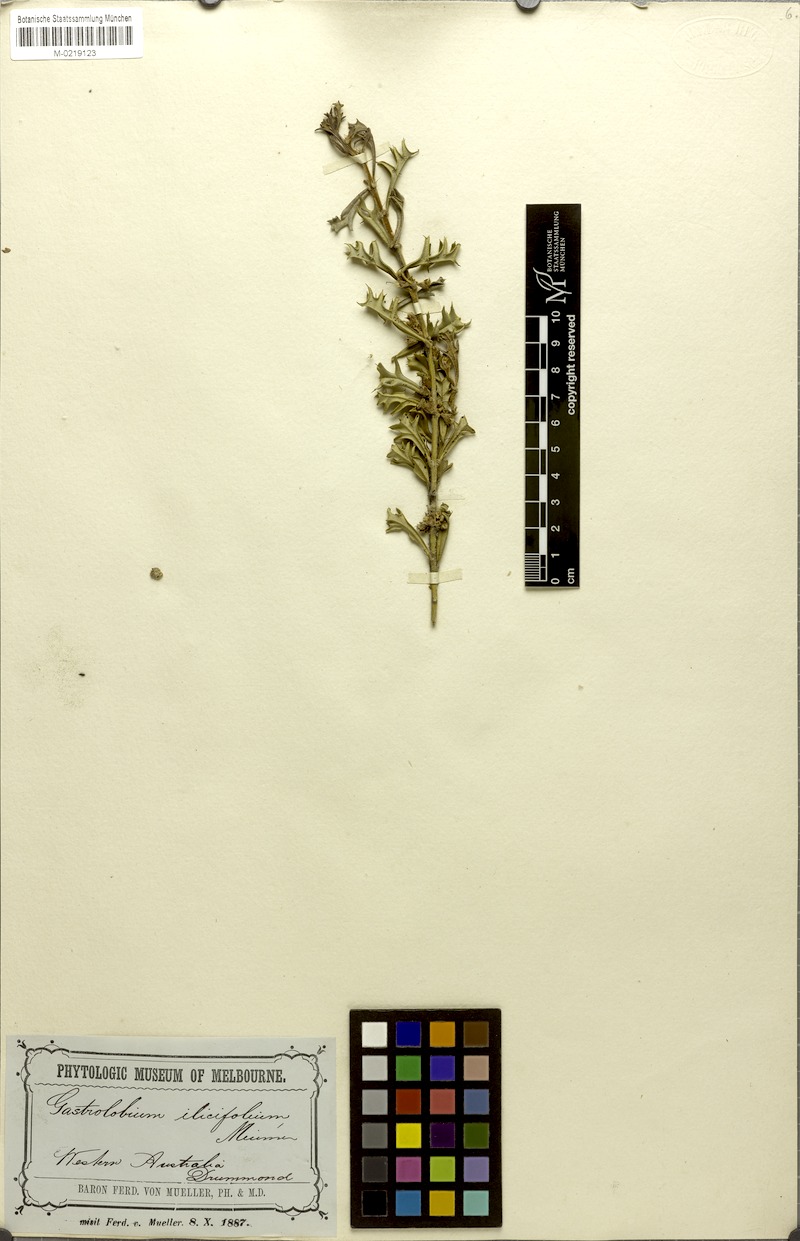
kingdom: Plantae
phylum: Tracheophyta
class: Magnoliopsida
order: Fabales
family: Fabaceae
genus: Gastrolobium
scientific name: Gastrolobium ilicifolium
